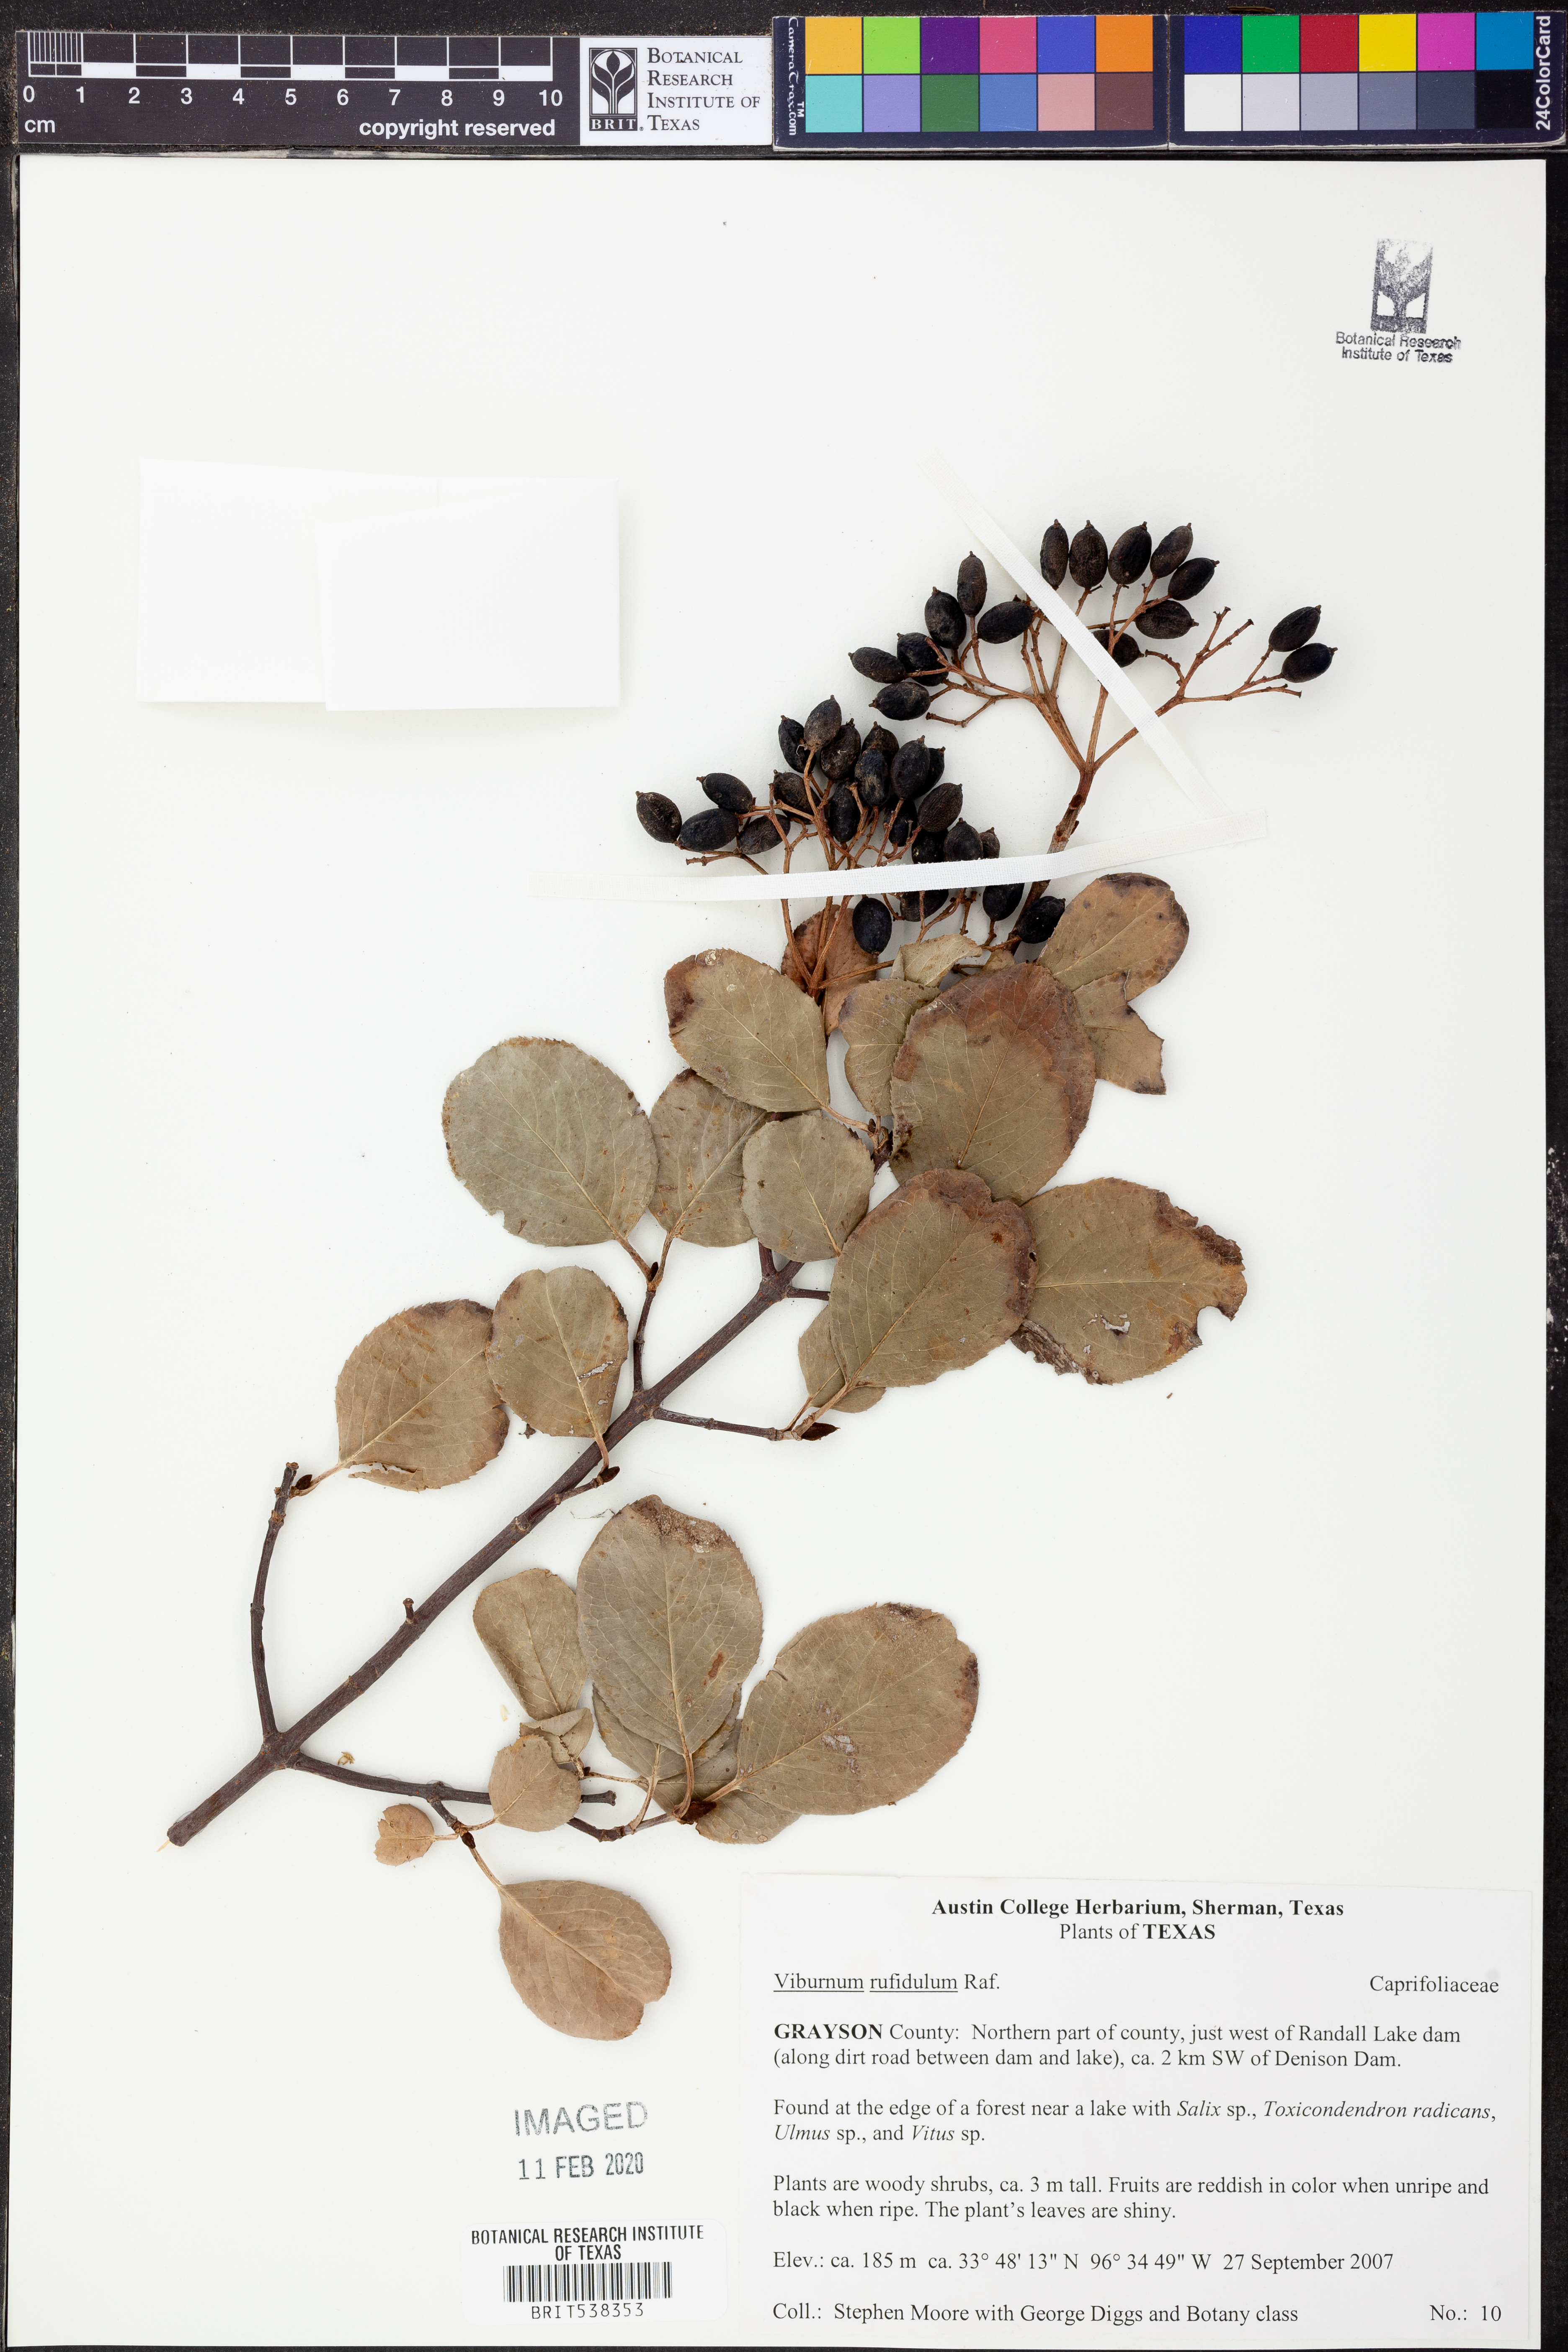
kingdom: Plantae
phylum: Tracheophyta
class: Magnoliopsida
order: Dipsacales
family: Viburnaceae
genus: Viburnum
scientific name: Viburnum rufidulum
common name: Blue haw
